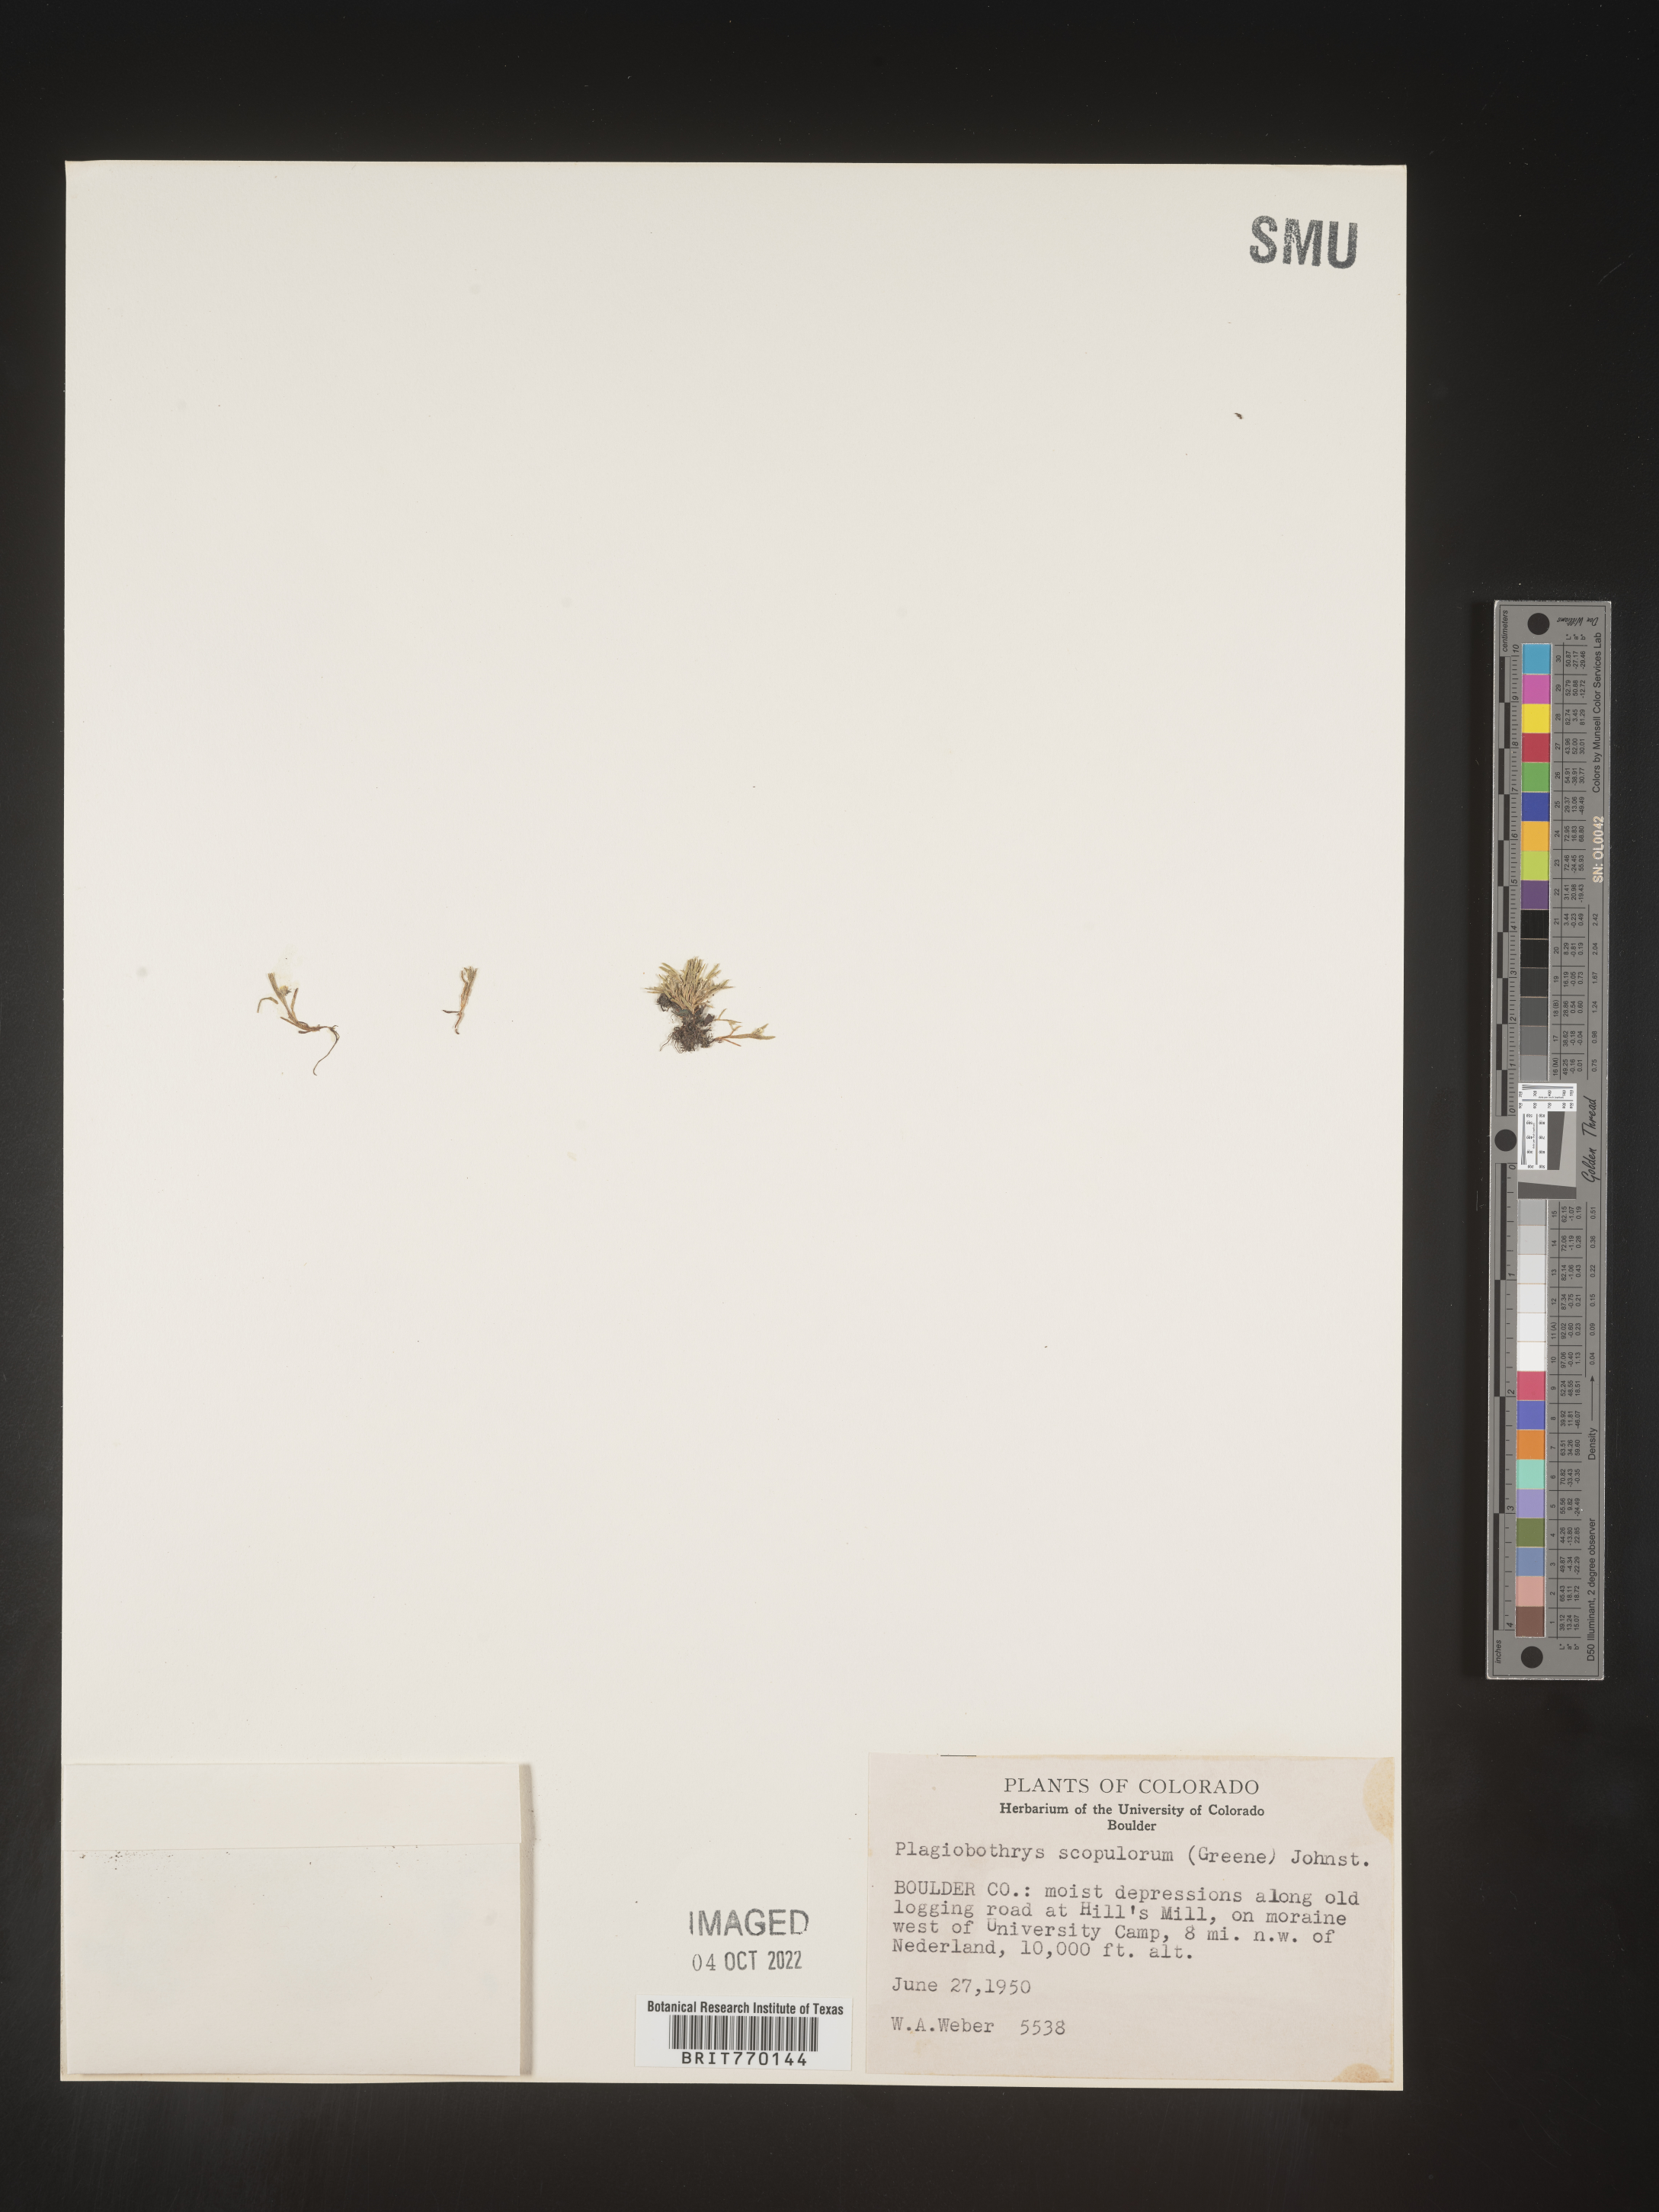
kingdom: Plantae
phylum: Tracheophyta
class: Magnoliopsida
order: Boraginales
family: Boraginaceae
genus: Plagiobothrys
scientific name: Plagiobothrys
